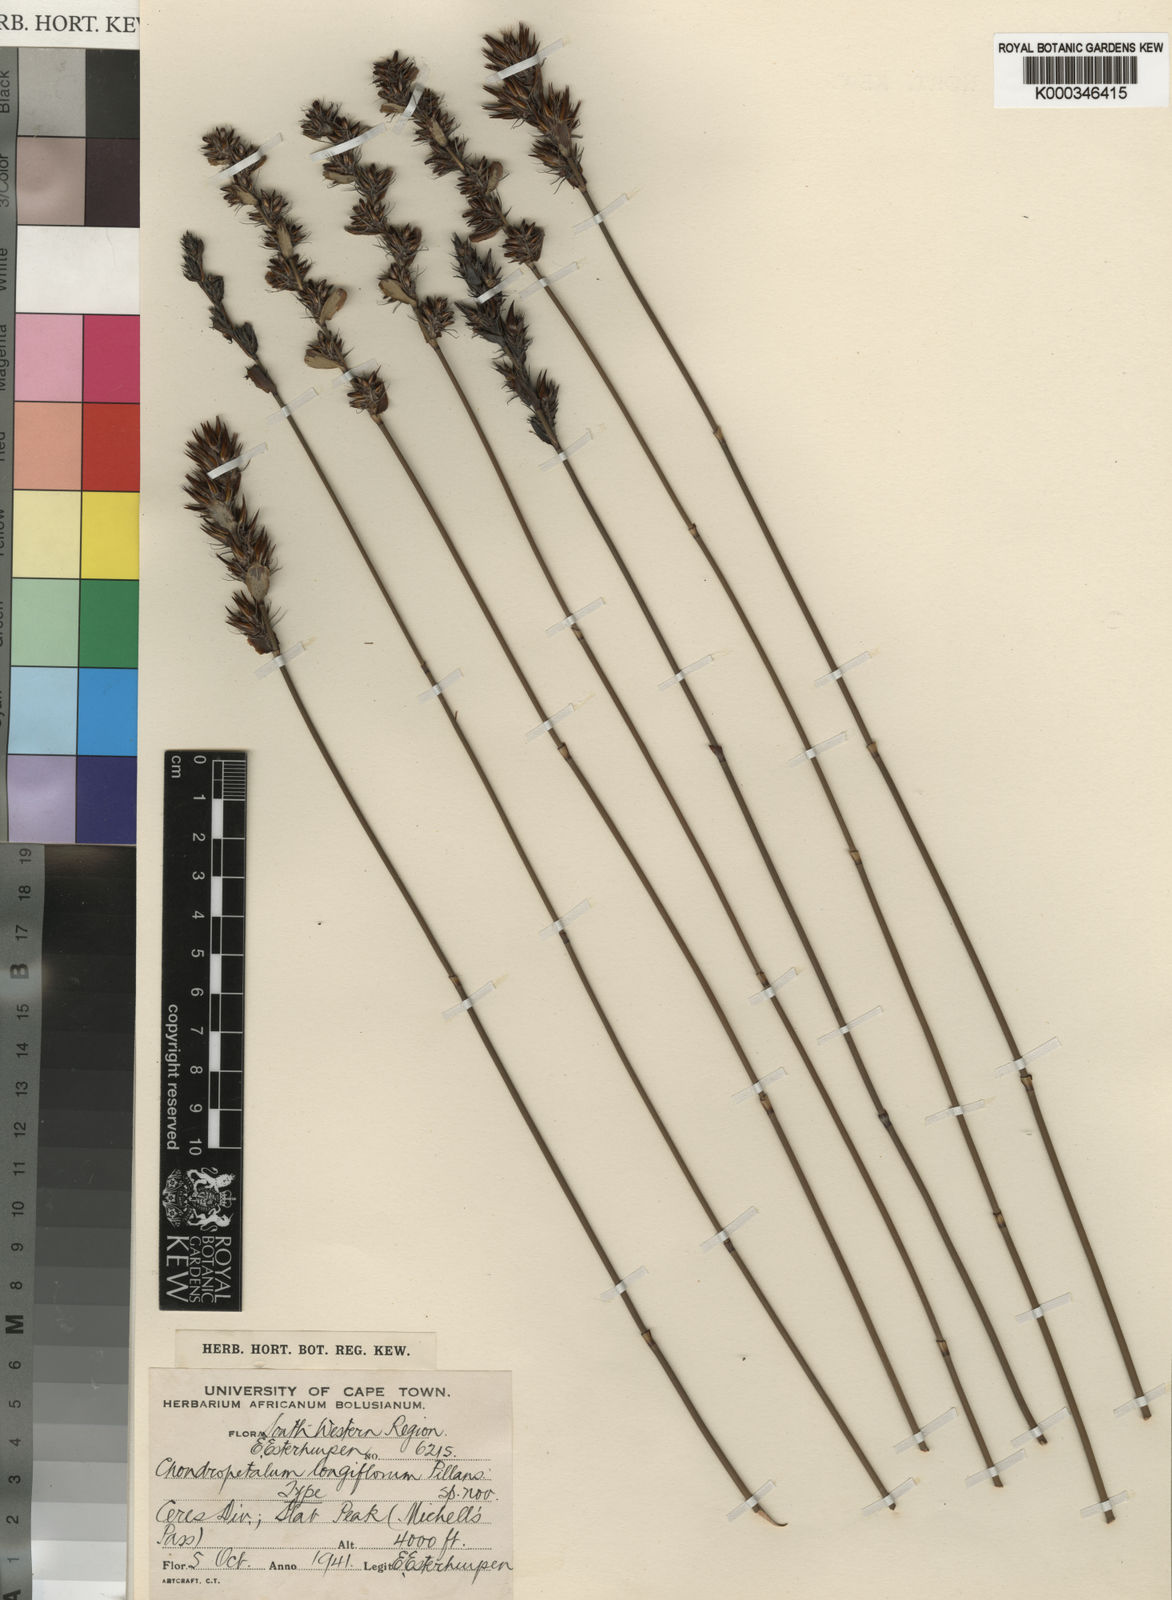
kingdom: Plantae
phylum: Tracheophyta
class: Liliopsida
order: Poales
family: Restionaceae
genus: Askidiosperma
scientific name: Askidiosperma longiflorum
